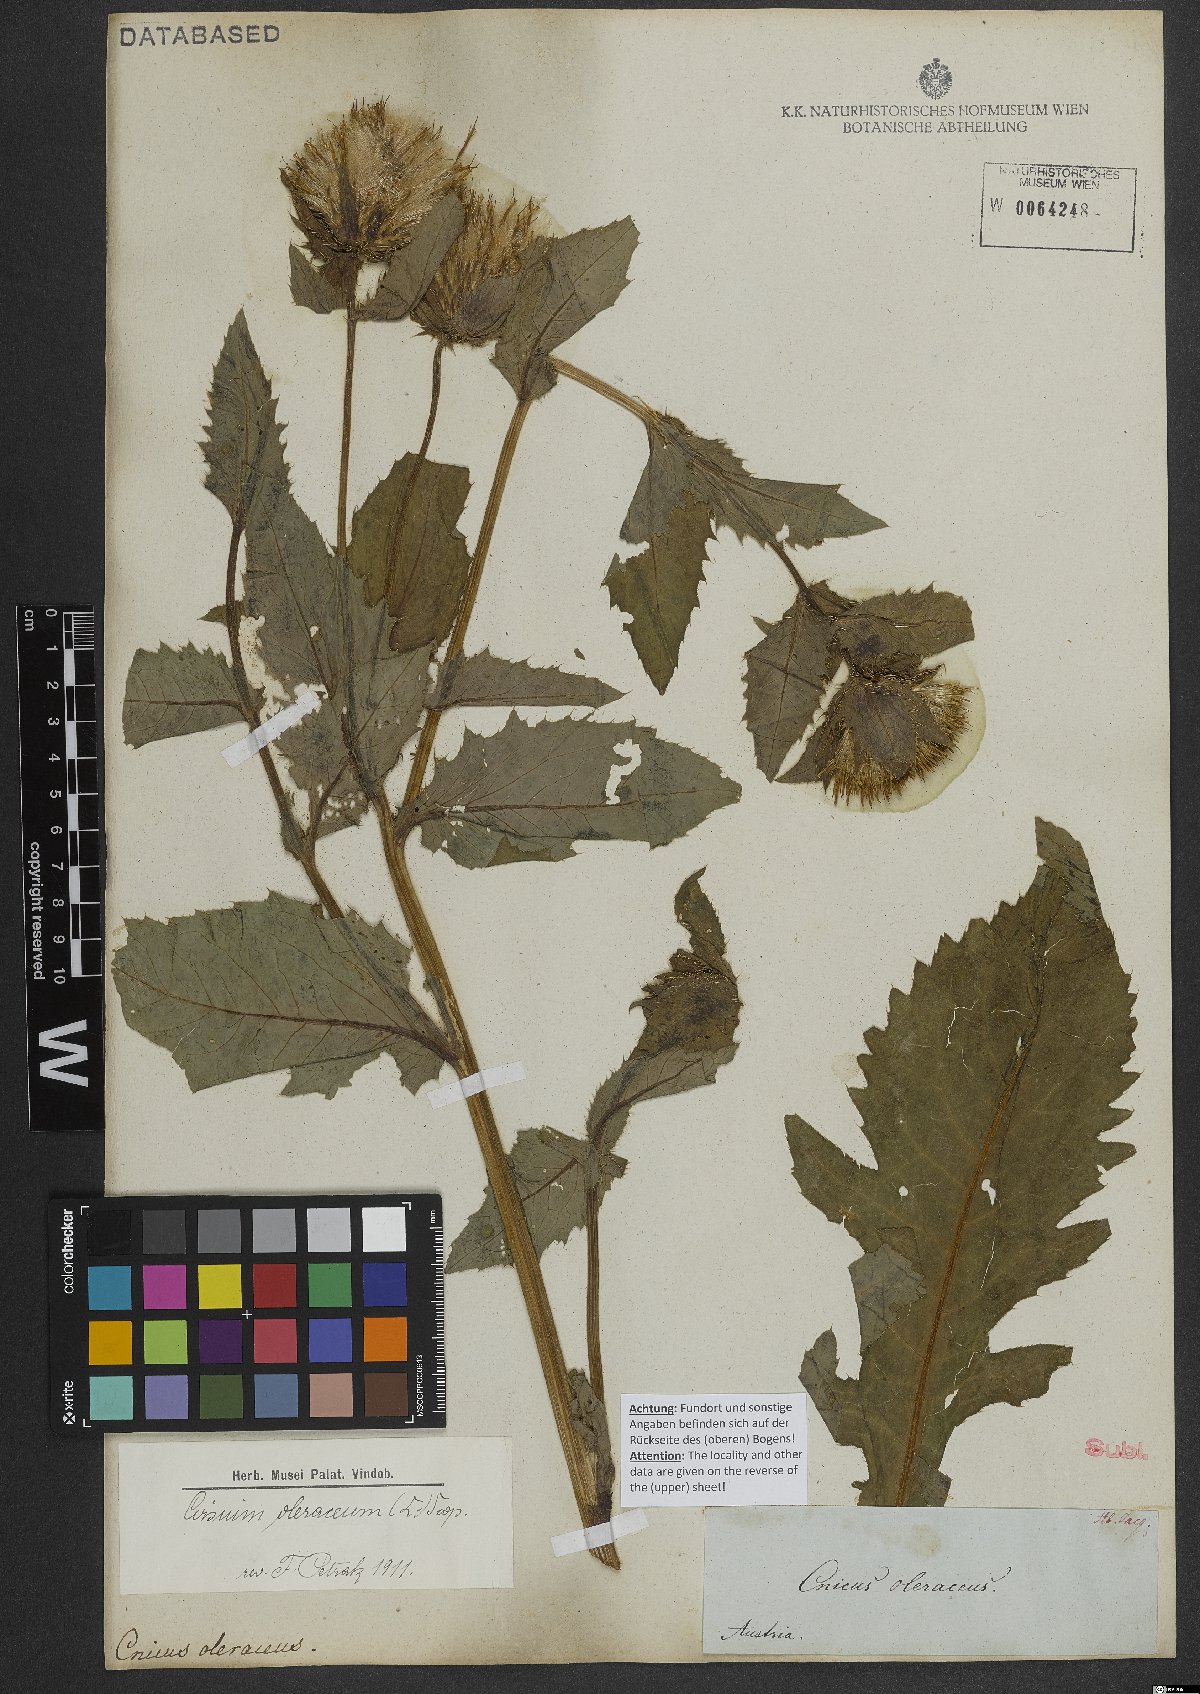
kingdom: Plantae
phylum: Tracheophyta
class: Magnoliopsida
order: Asterales
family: Asteraceae
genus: Cirsium
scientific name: Cirsium oleraceum
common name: Cabbage thistle
